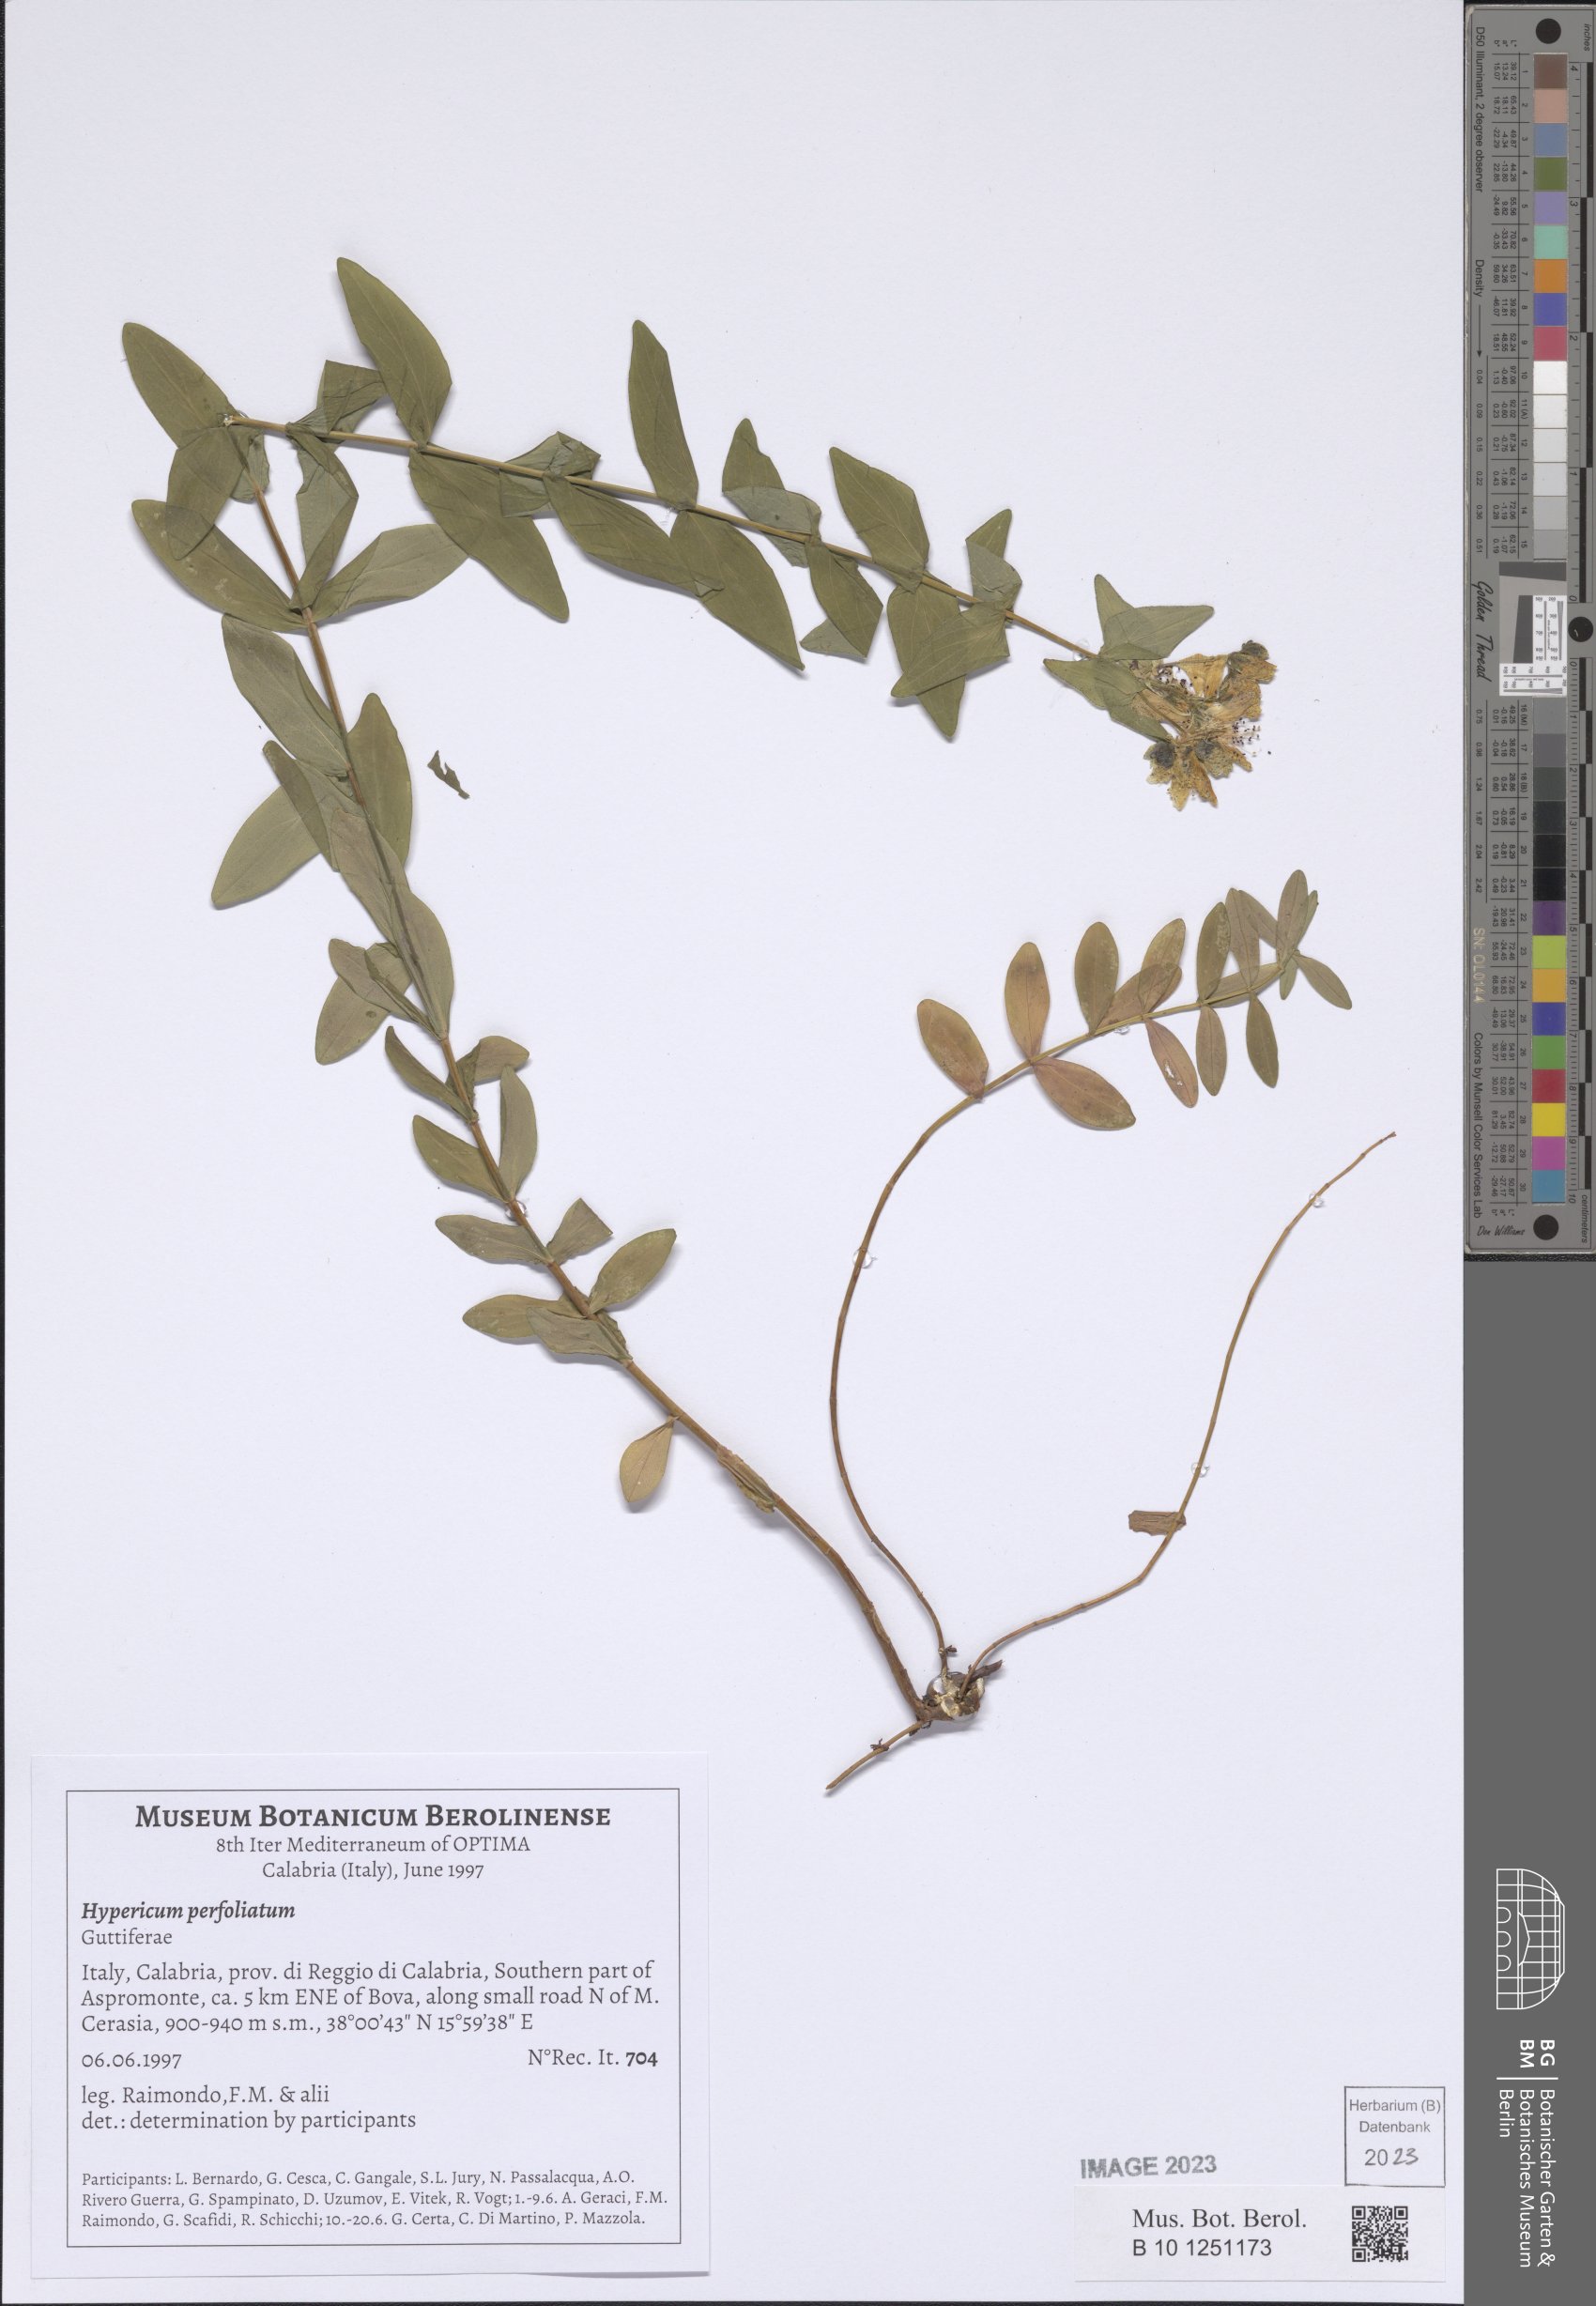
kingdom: Plantae
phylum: Tracheophyta
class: Magnoliopsida
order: Malpighiales
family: Hypericaceae
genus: Hypericum
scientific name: Hypericum perfoliatum
